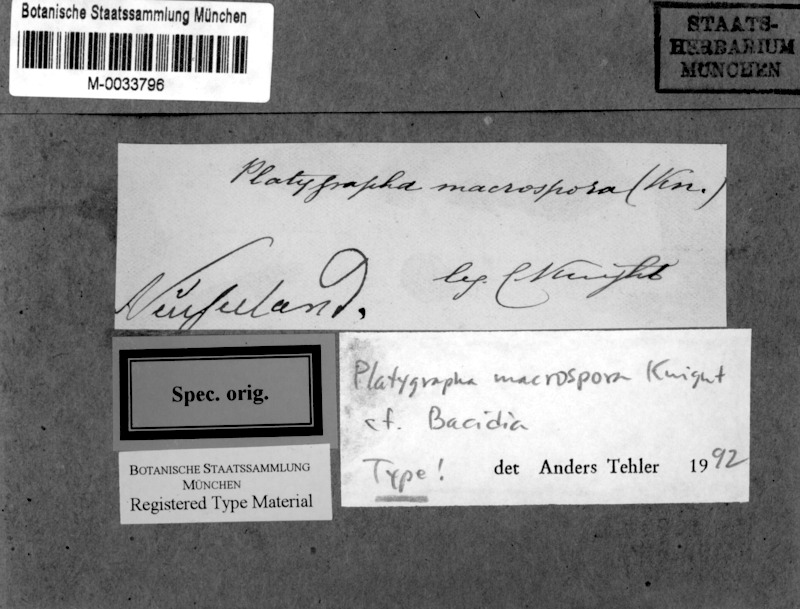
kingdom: Fungi
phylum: Ascomycota
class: Lecanoromycetes
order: Lecanorales
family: Ramalinaceae
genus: Bacidia
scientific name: Bacidia macrospora
